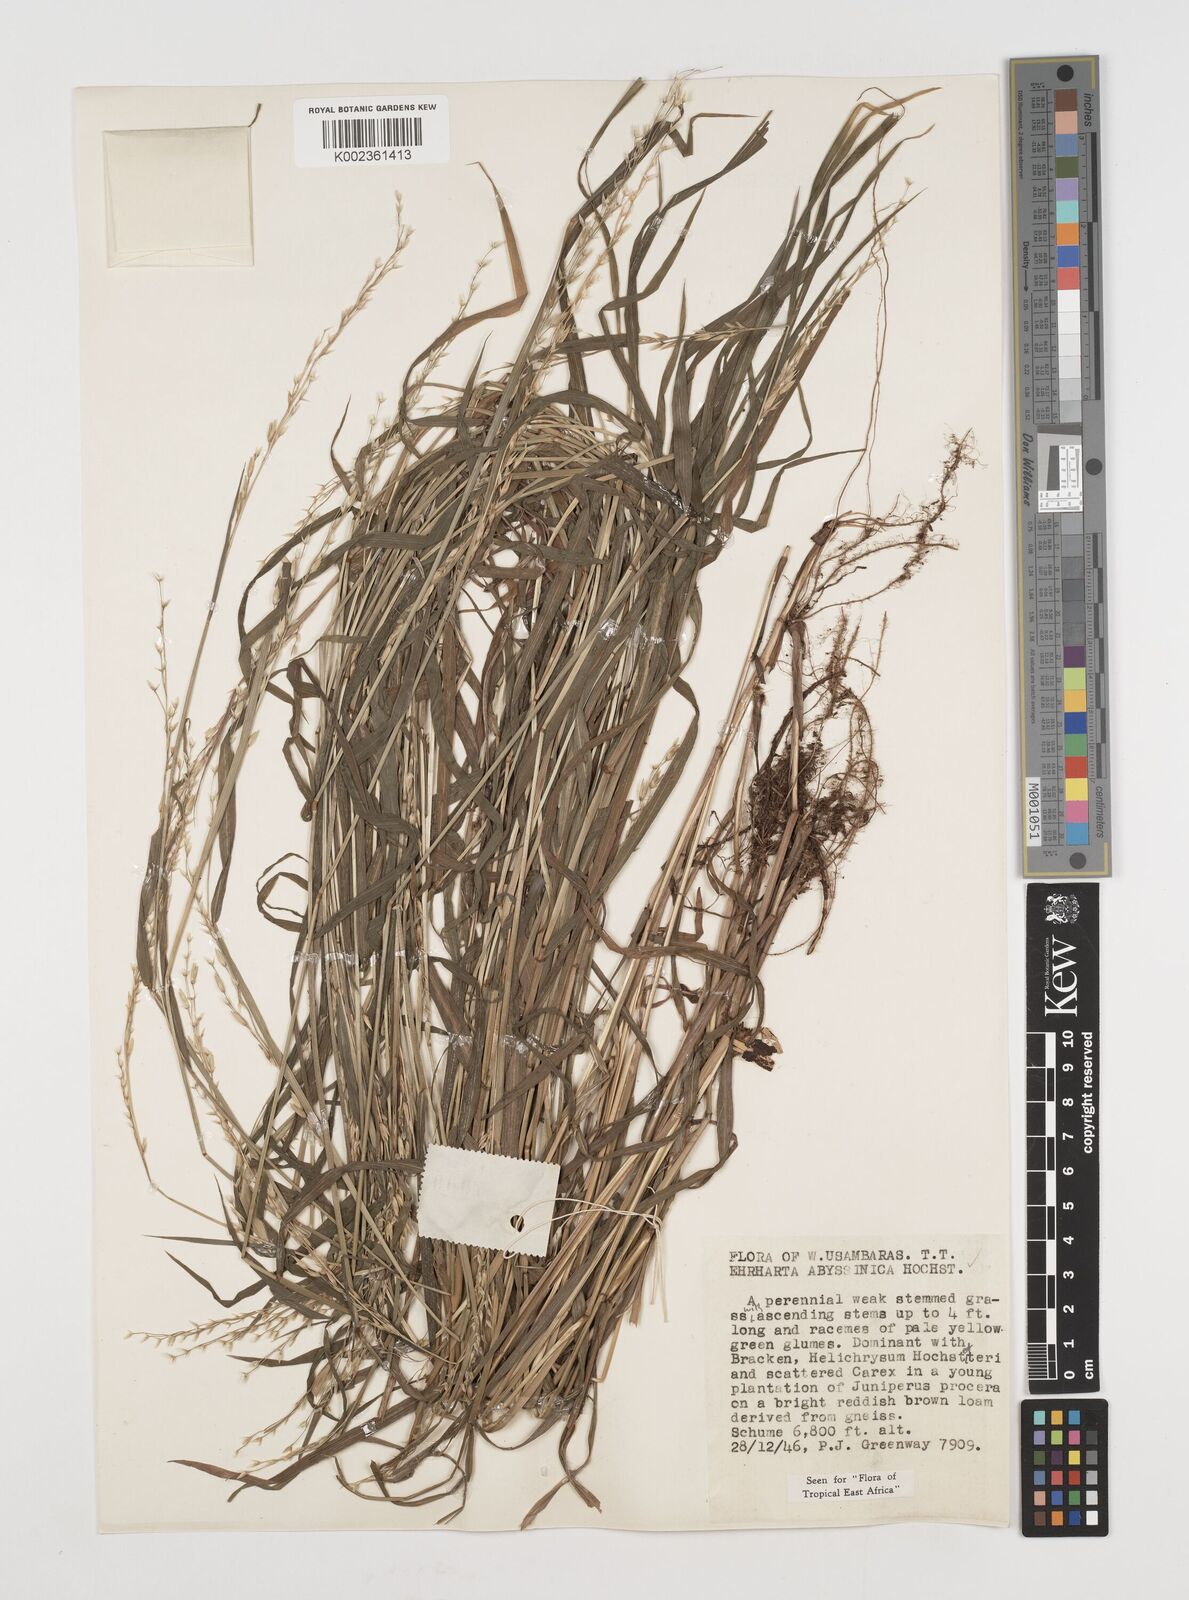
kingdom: Plantae
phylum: Tracheophyta
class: Liliopsida
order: Poales
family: Poaceae
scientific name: Poaceae
